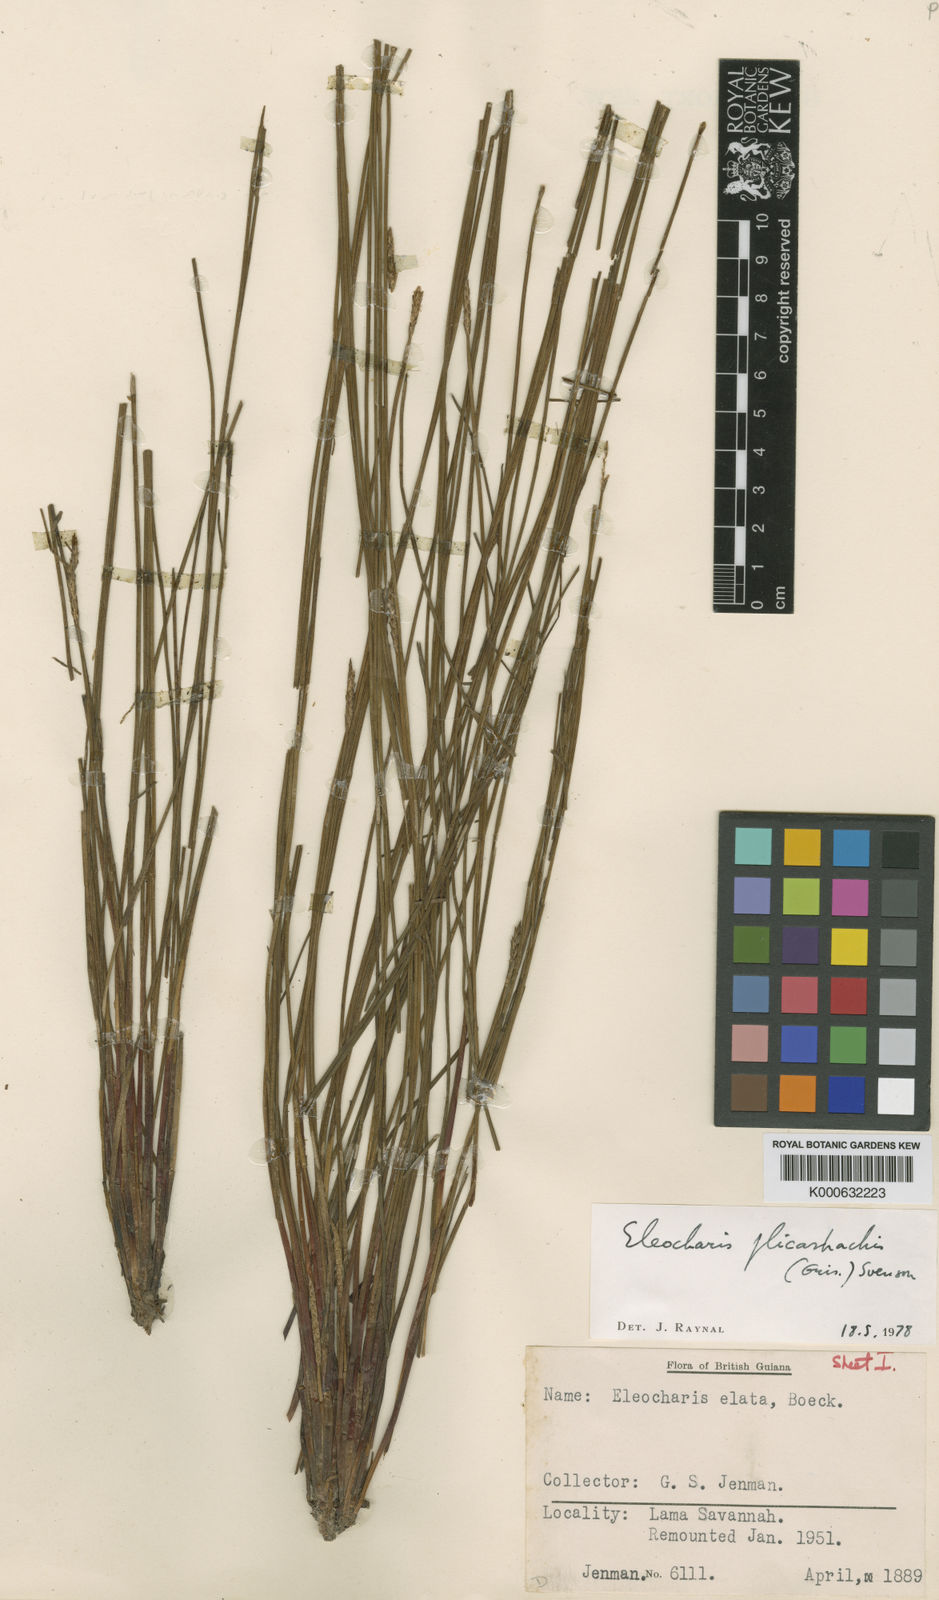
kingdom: Plantae
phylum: Tracheophyta
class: Liliopsida
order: Poales
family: Cyperaceae
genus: Eleocharis
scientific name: Eleocharis plicarhachis
